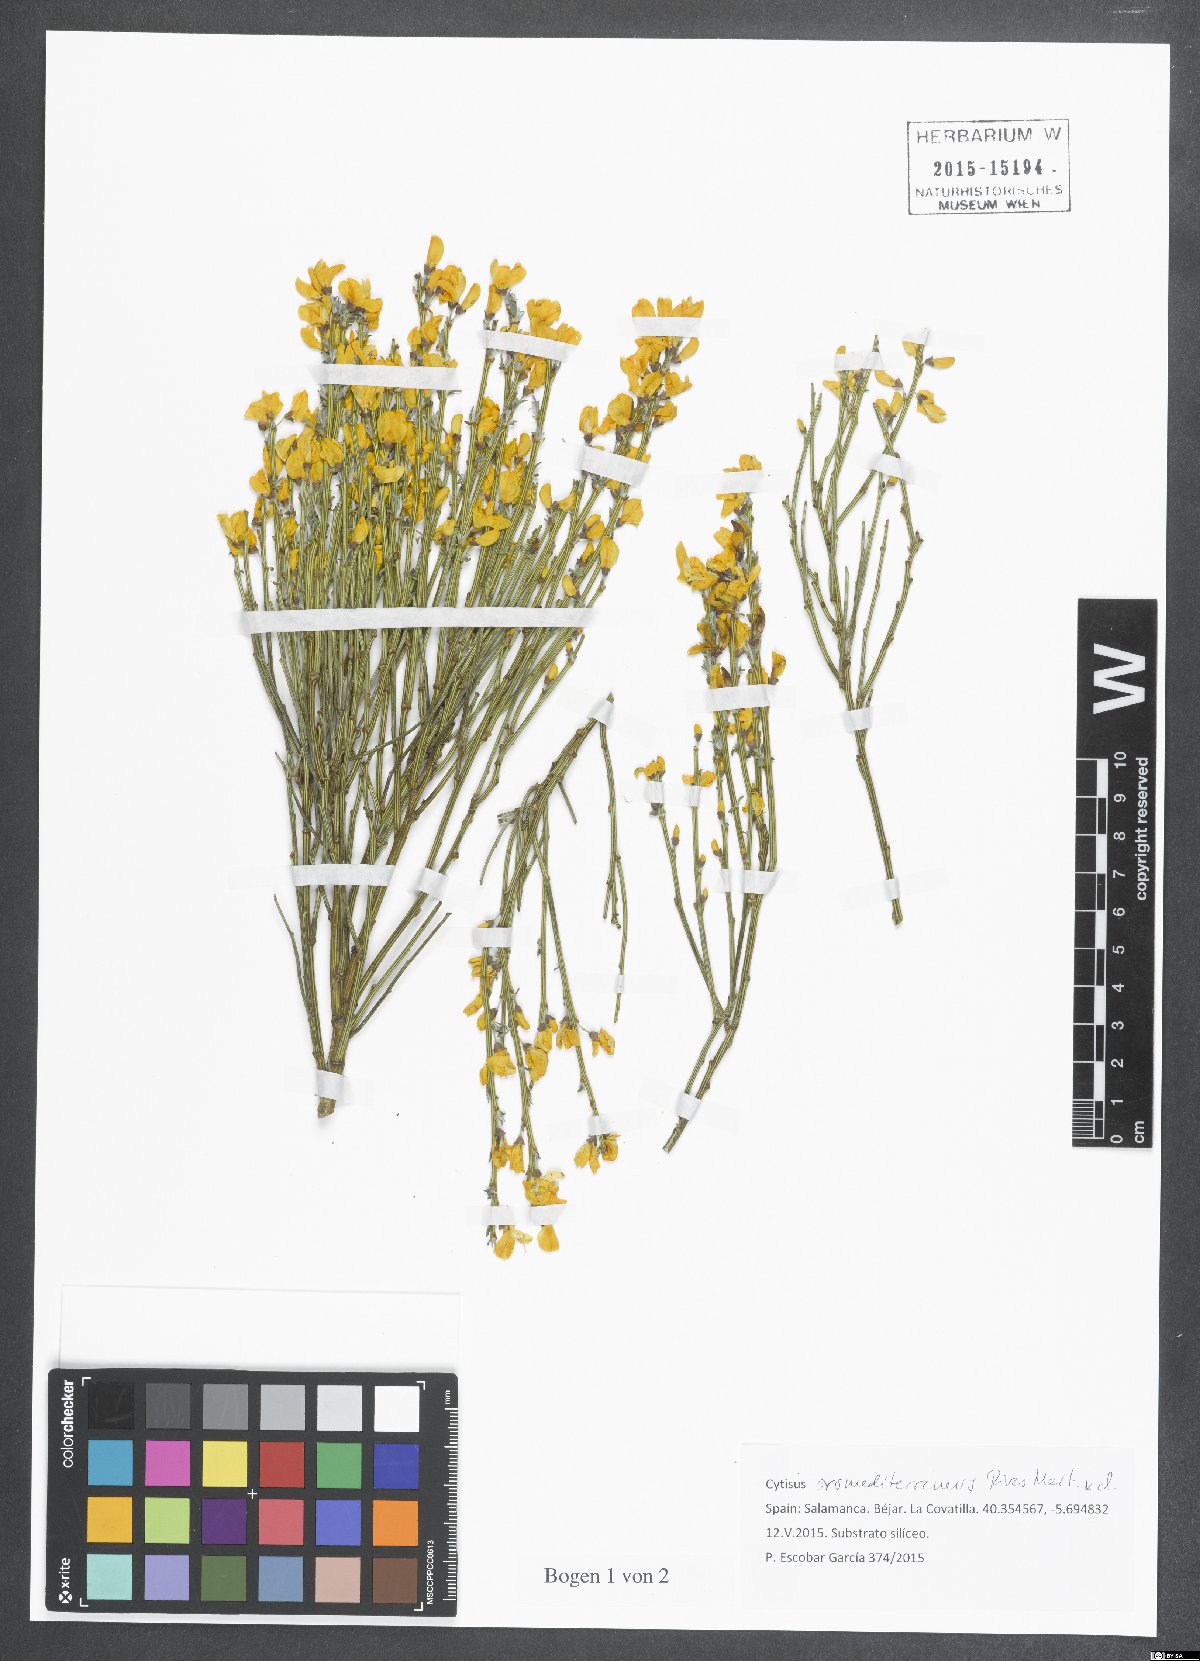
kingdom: Plantae
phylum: Tracheophyta
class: Magnoliopsida
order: Fabales
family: Fabaceae
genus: Cytisus
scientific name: Cytisus oromediterraneus
